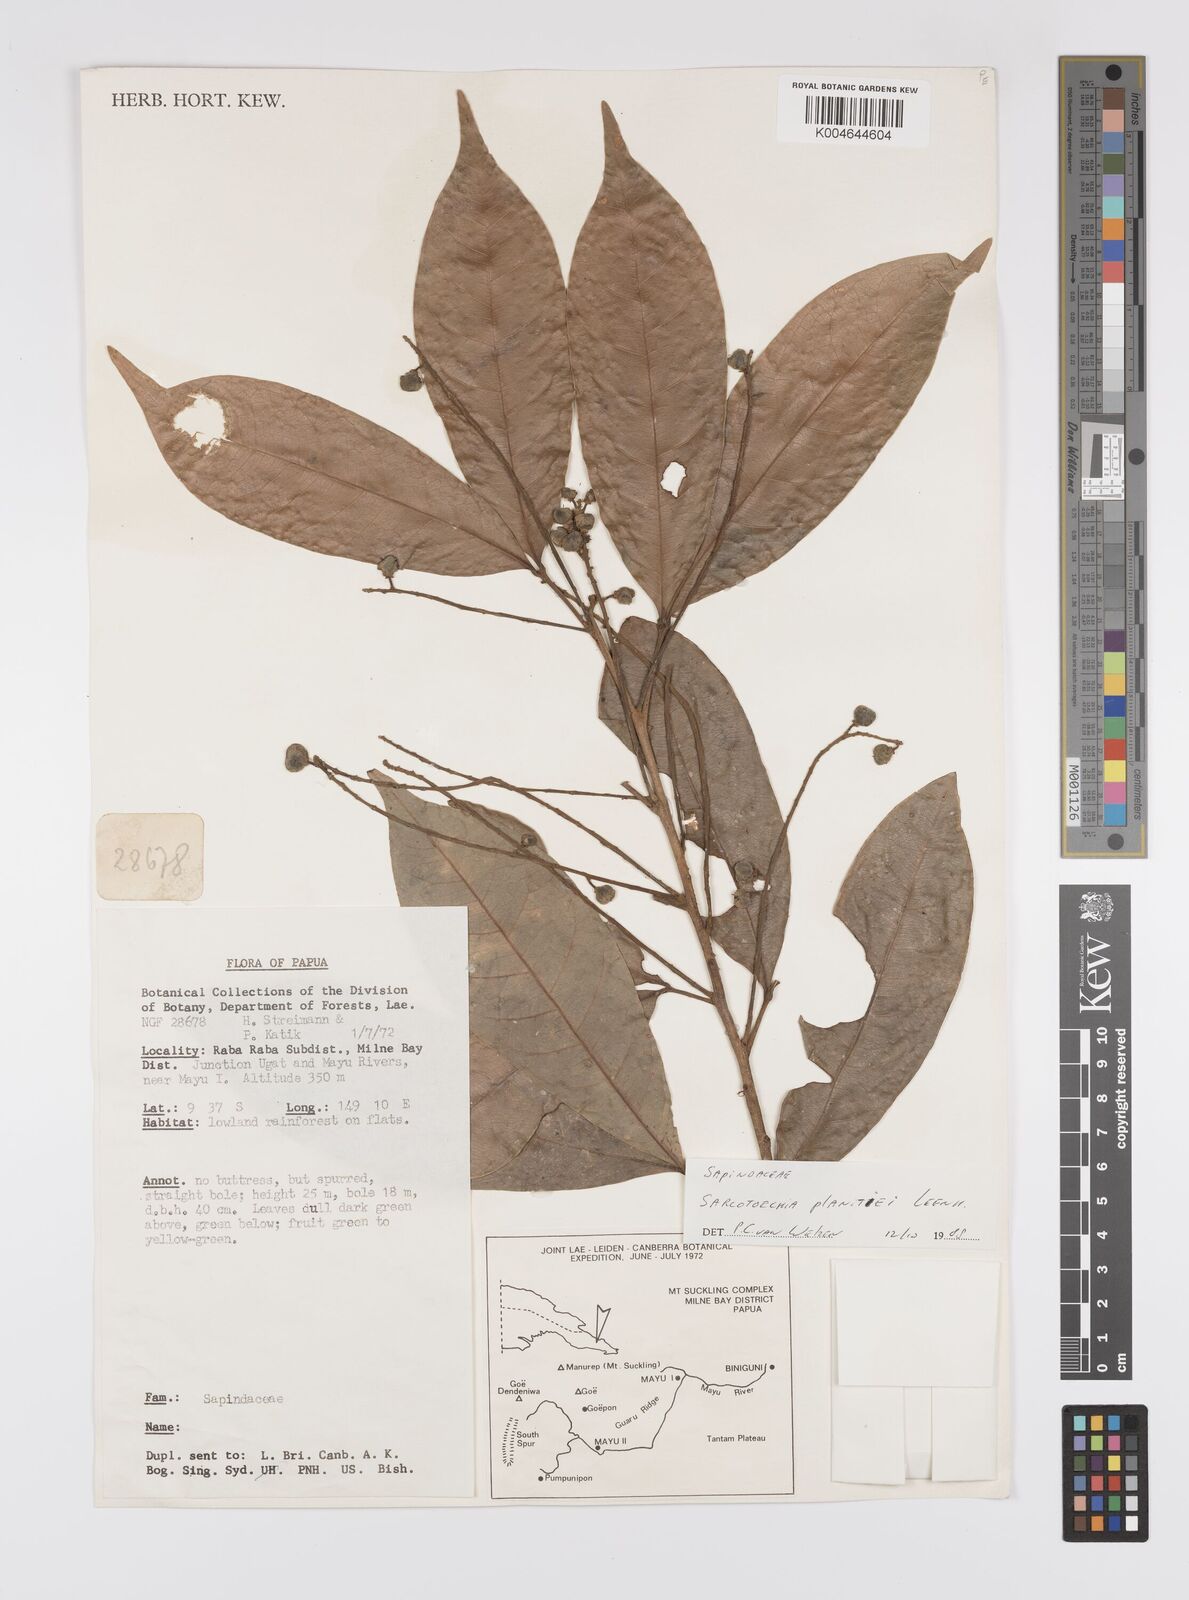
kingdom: Plantae
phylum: Tracheophyta
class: Magnoliopsida
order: Sapindales
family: Sapindaceae
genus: Sarcotoechia
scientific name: Sarcotoechia planitiei
